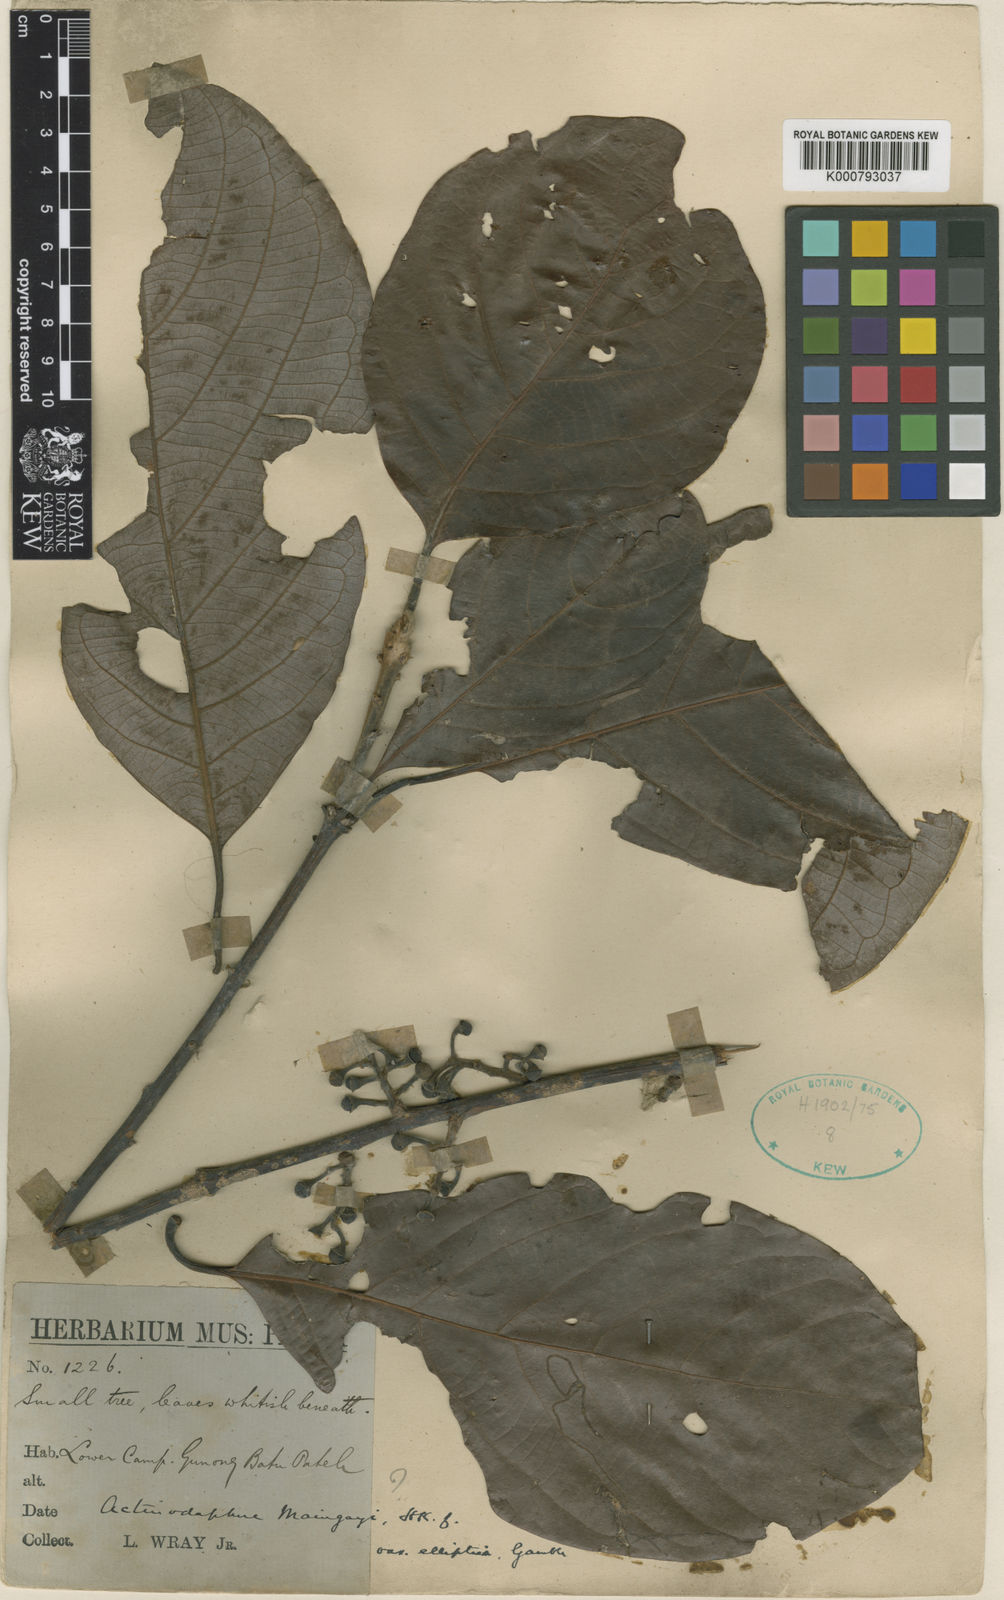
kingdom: Plantae
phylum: Tracheophyta
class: Magnoliopsida
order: Laurales
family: Lauraceae
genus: Actinodaphne
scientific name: Actinodaphne macrophylla
